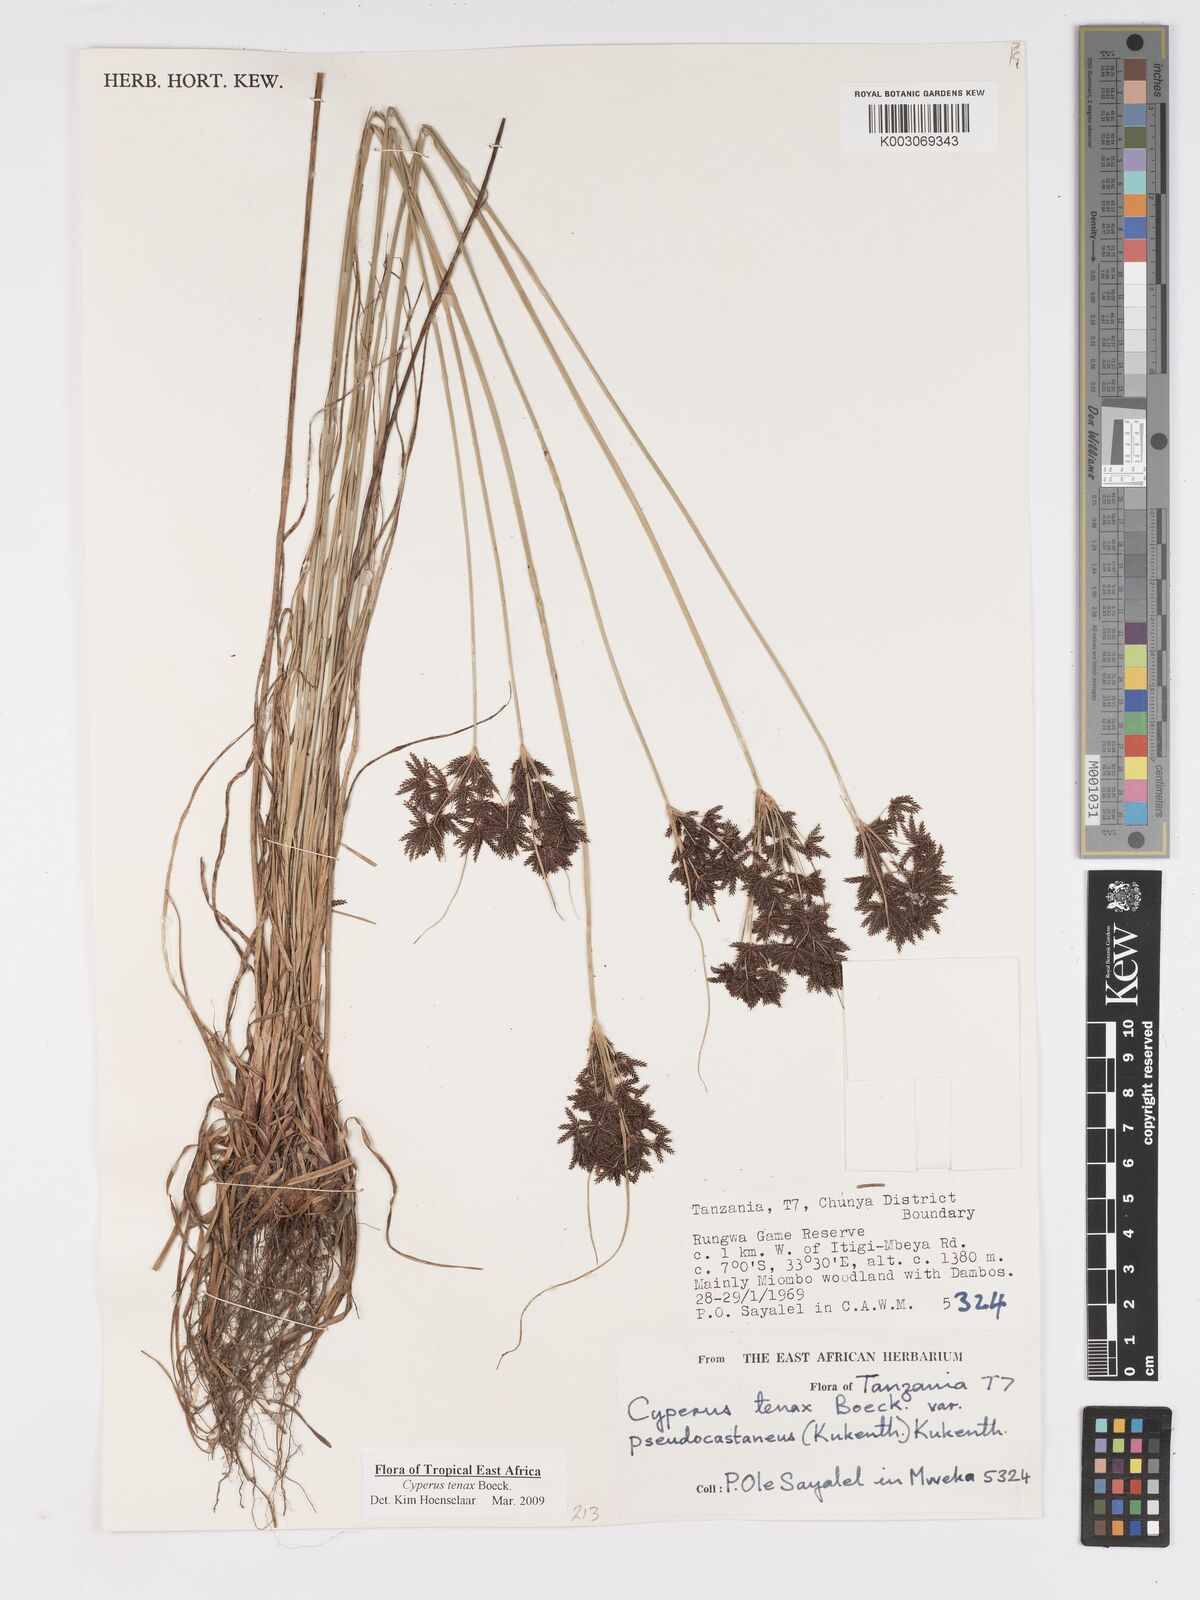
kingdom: Plantae
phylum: Tracheophyta
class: Liliopsida
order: Poales
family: Cyperaceae
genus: Cyperus
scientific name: Cyperus tenax
